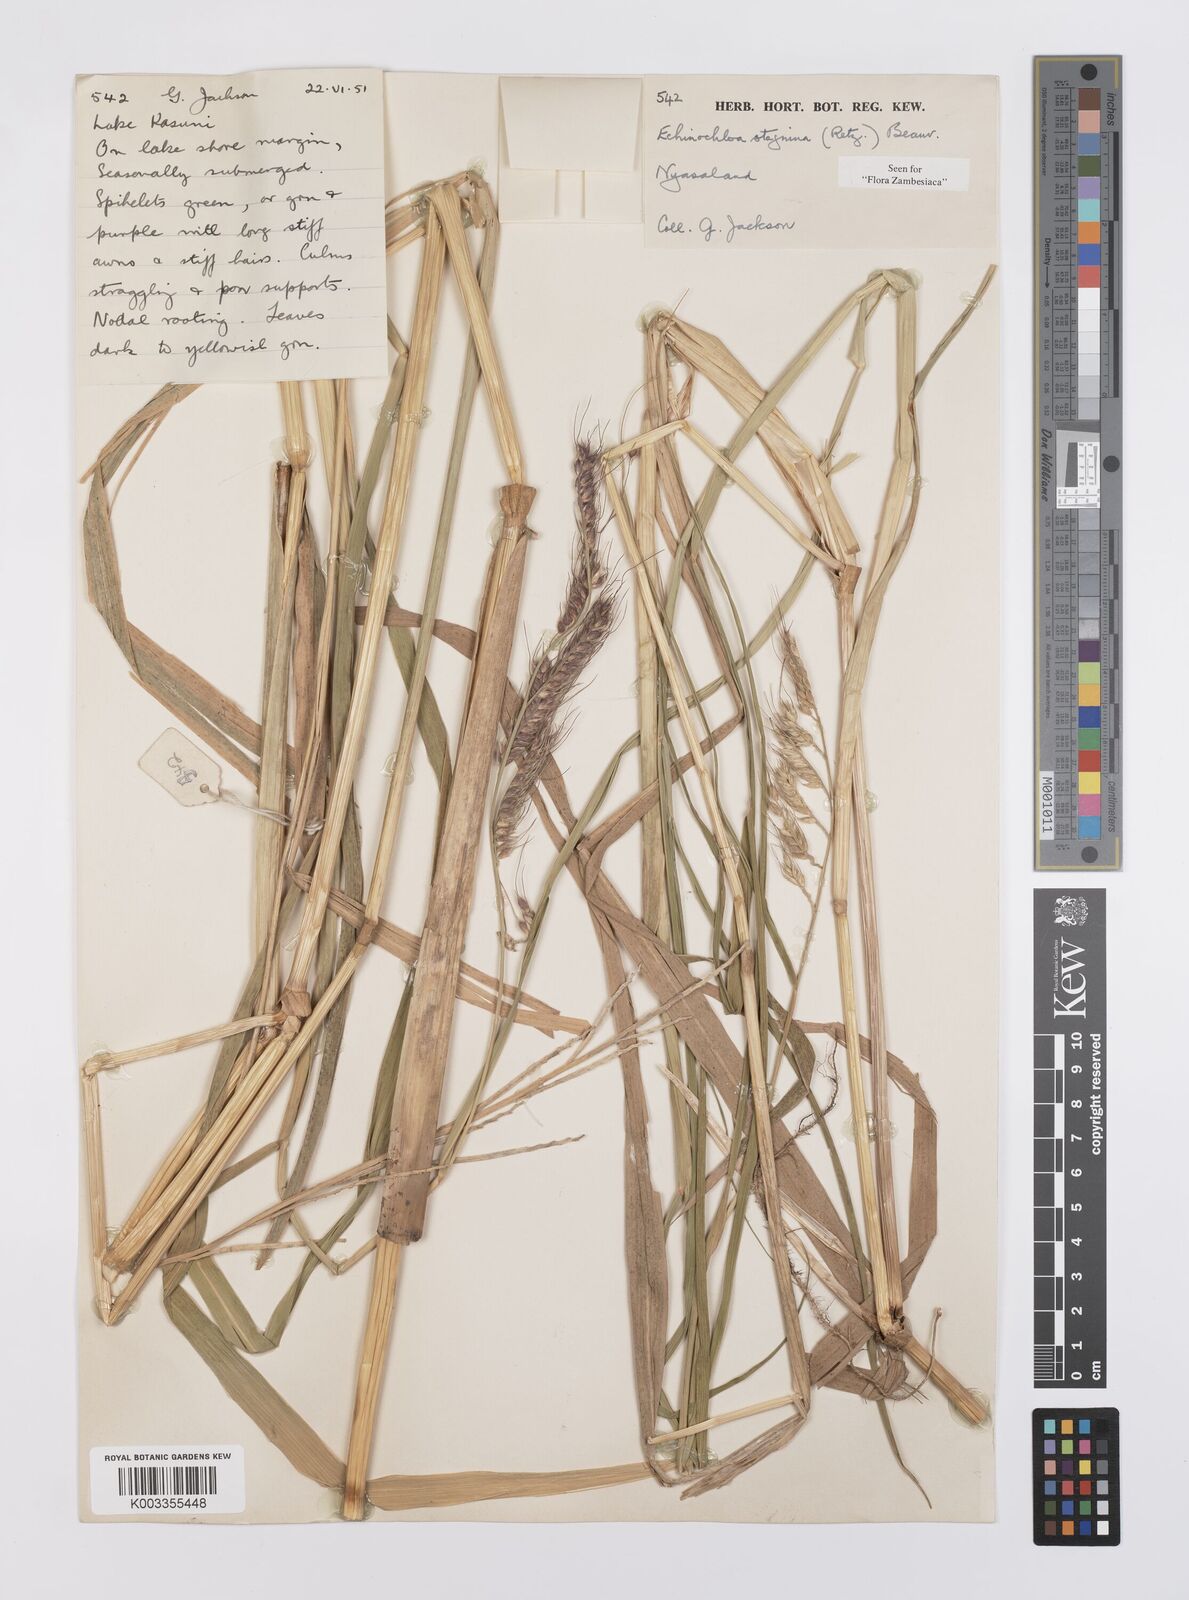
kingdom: Plantae
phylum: Tracheophyta
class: Liliopsida
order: Poales
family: Poaceae
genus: Echinochloa
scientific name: Echinochloa stagnina
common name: Burgu grass
